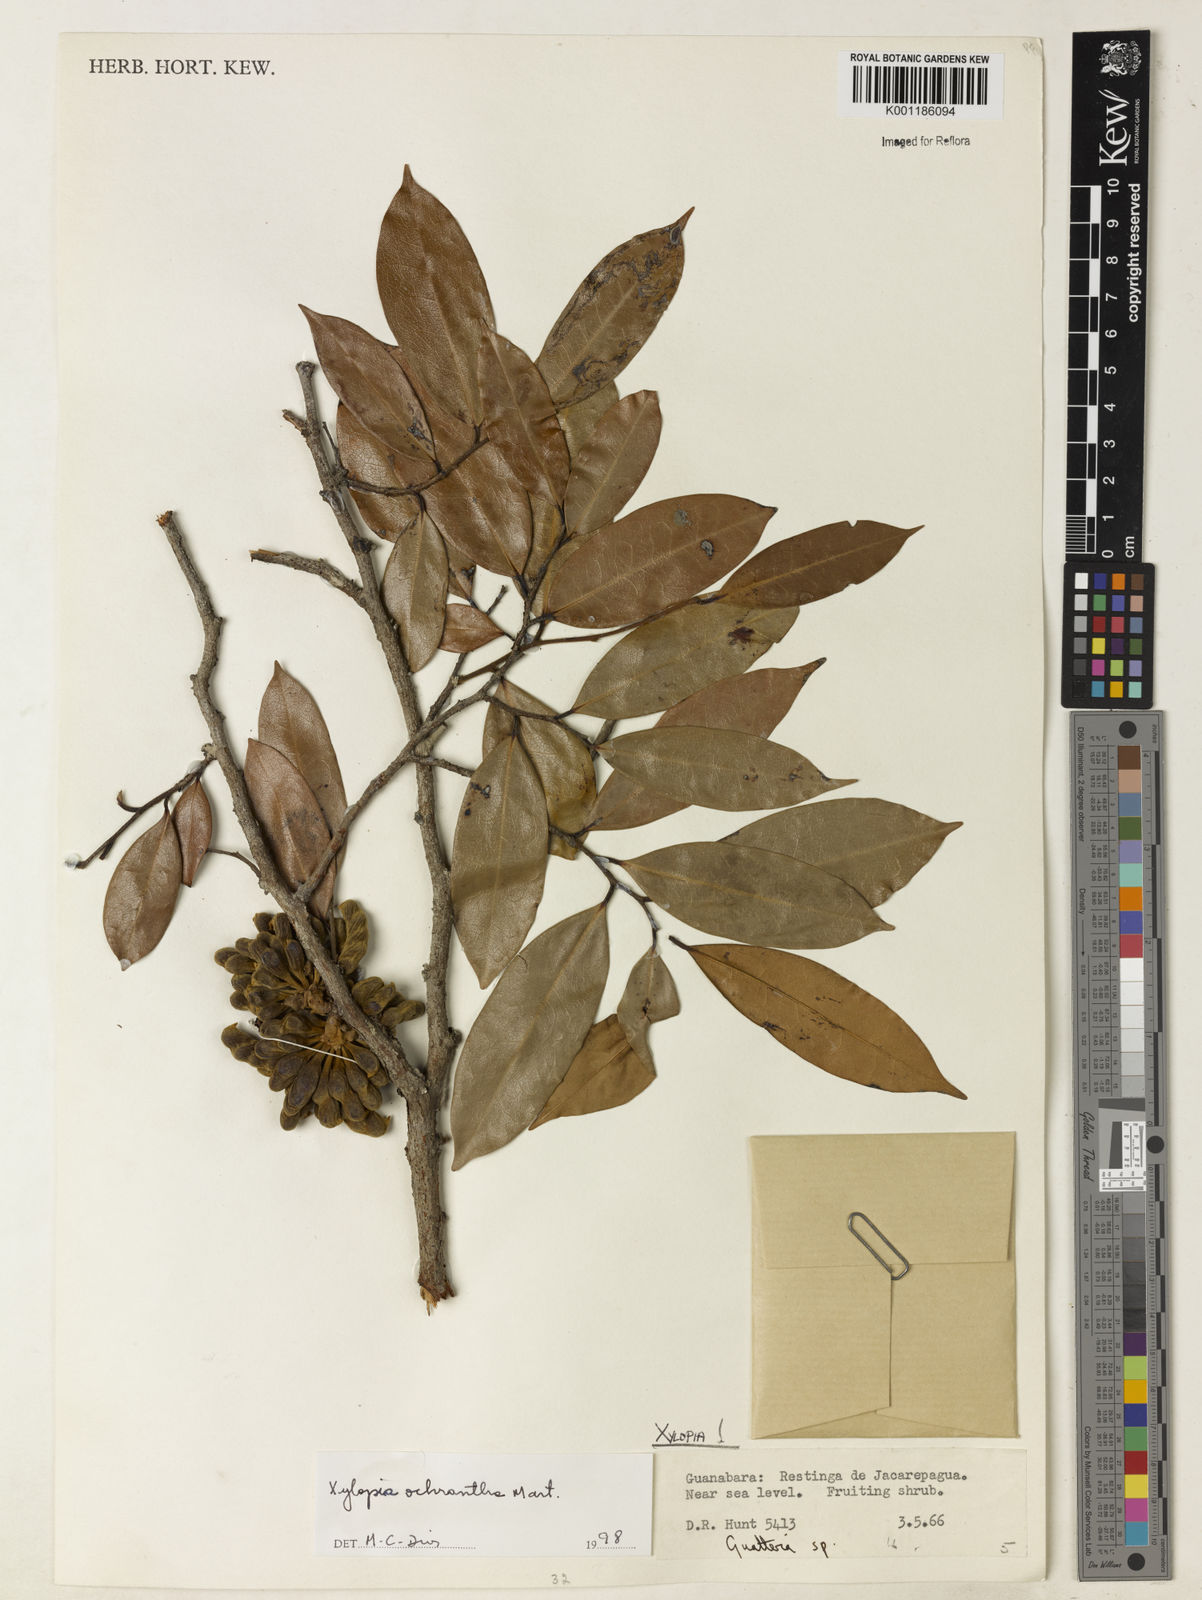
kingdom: Plantae
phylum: Tracheophyta
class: Magnoliopsida
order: Magnoliales
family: Annonaceae
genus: Xylopia
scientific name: Xylopia ochrantha
